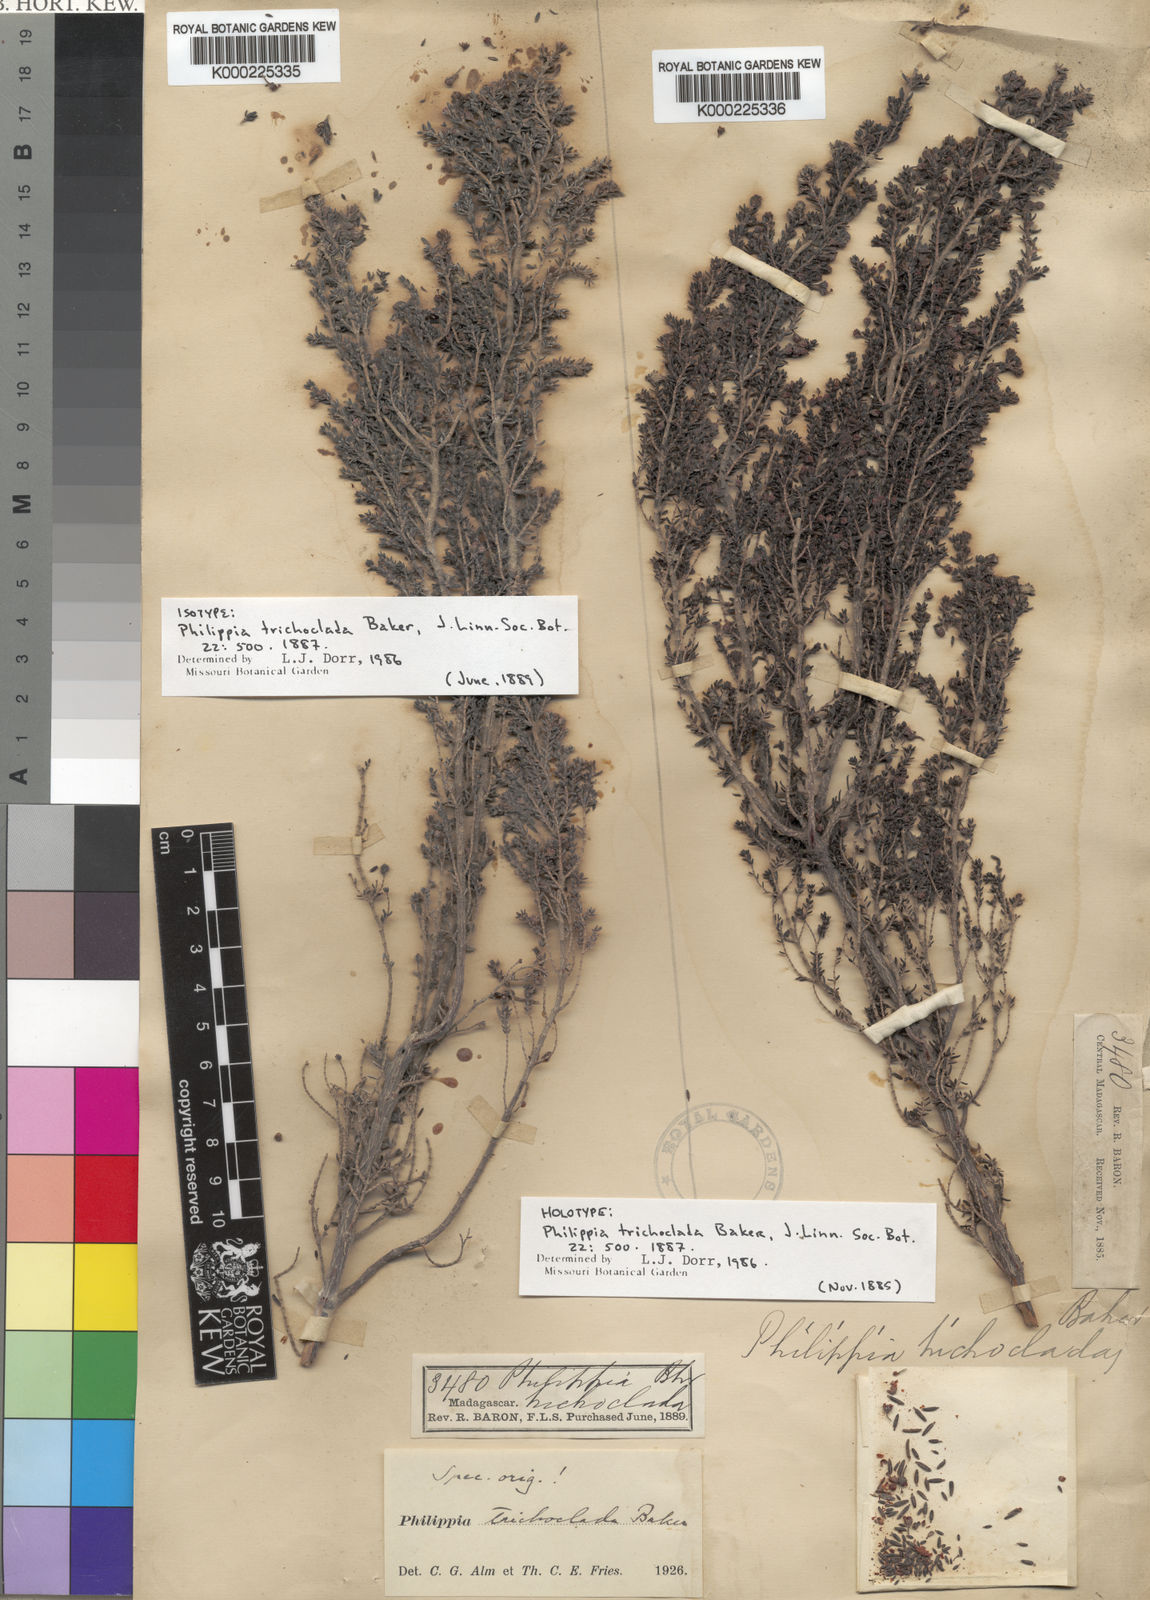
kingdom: Plantae
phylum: Tracheophyta
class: Magnoliopsida
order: Ericales
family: Ericaceae
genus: Erica
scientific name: Erica hebeclada
